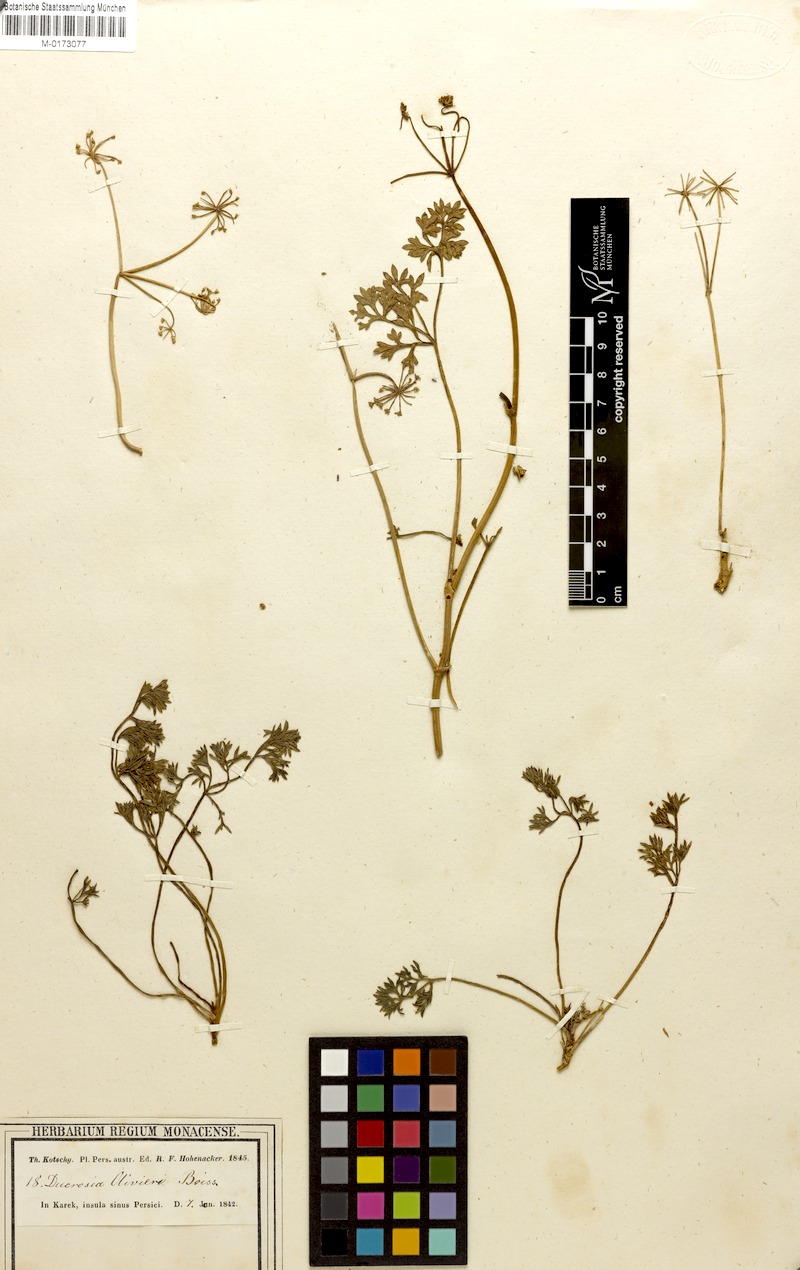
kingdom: Plantae
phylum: Tracheophyta
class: Magnoliopsida
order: Apiales
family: Apiaceae
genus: Ducrosia
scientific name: Ducrosia anethifolia
